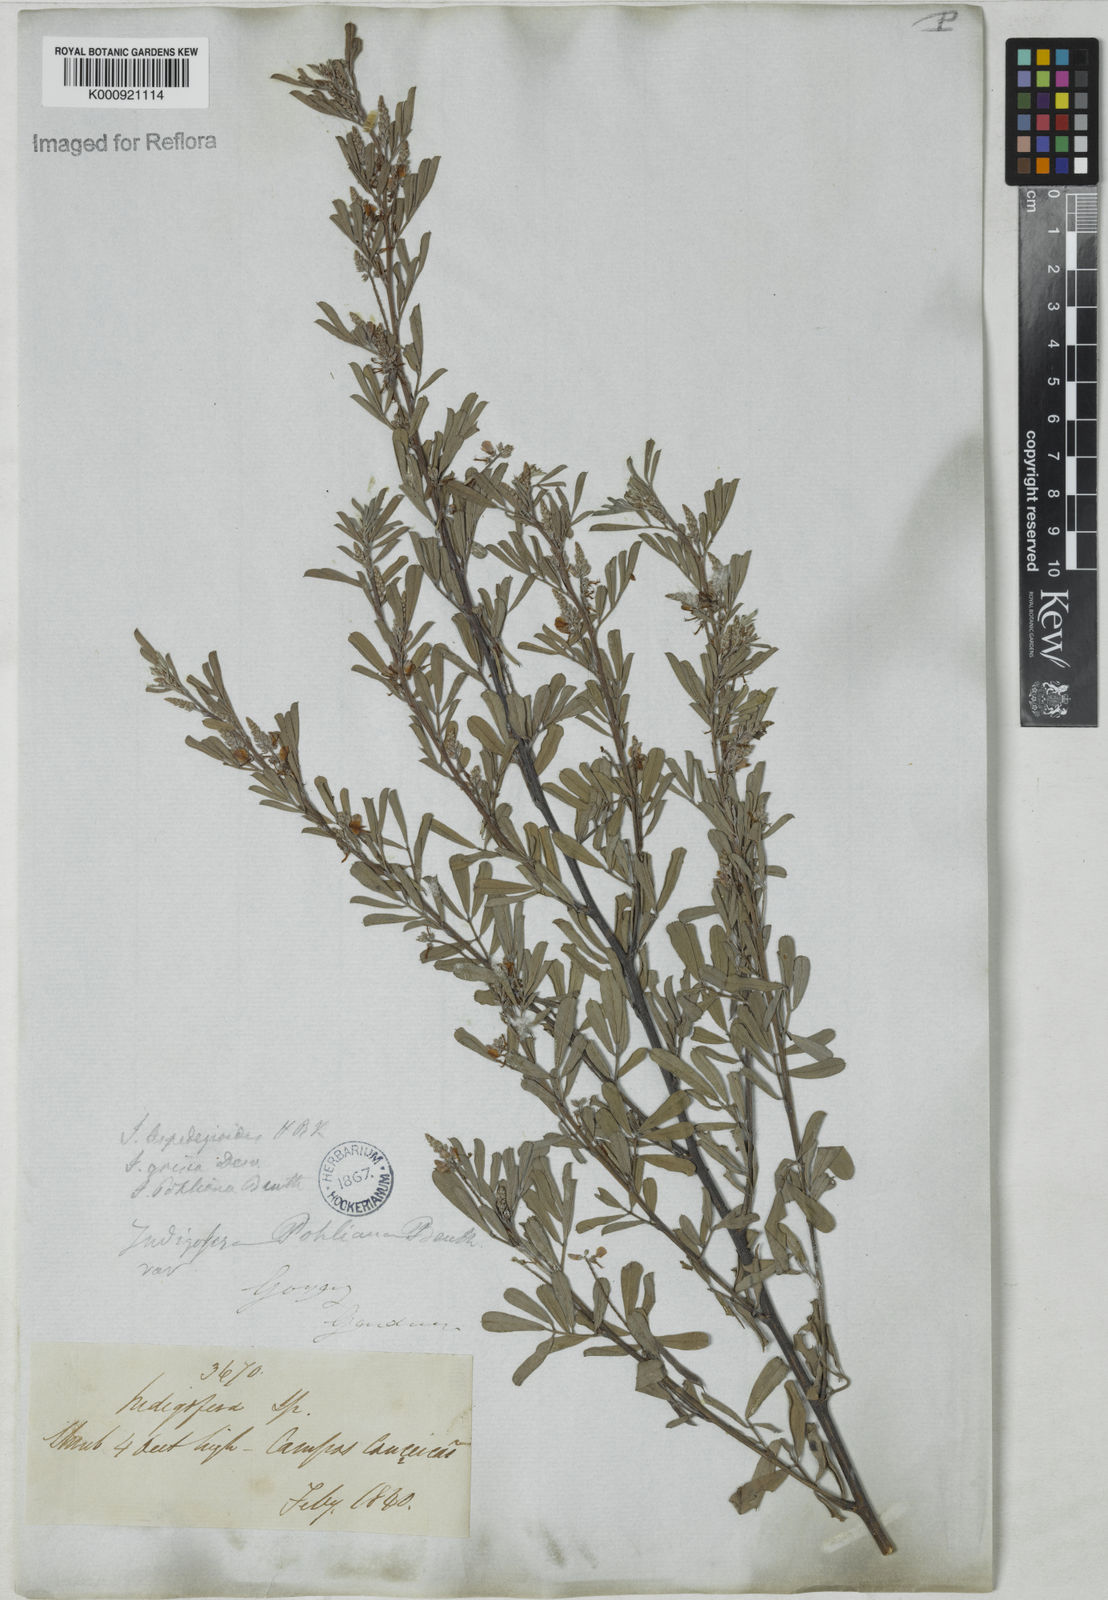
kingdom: Plantae
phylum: Tracheophyta
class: Magnoliopsida
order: Fabales
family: Fabaceae
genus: Indigofera
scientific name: Indigofera lespedezioides
